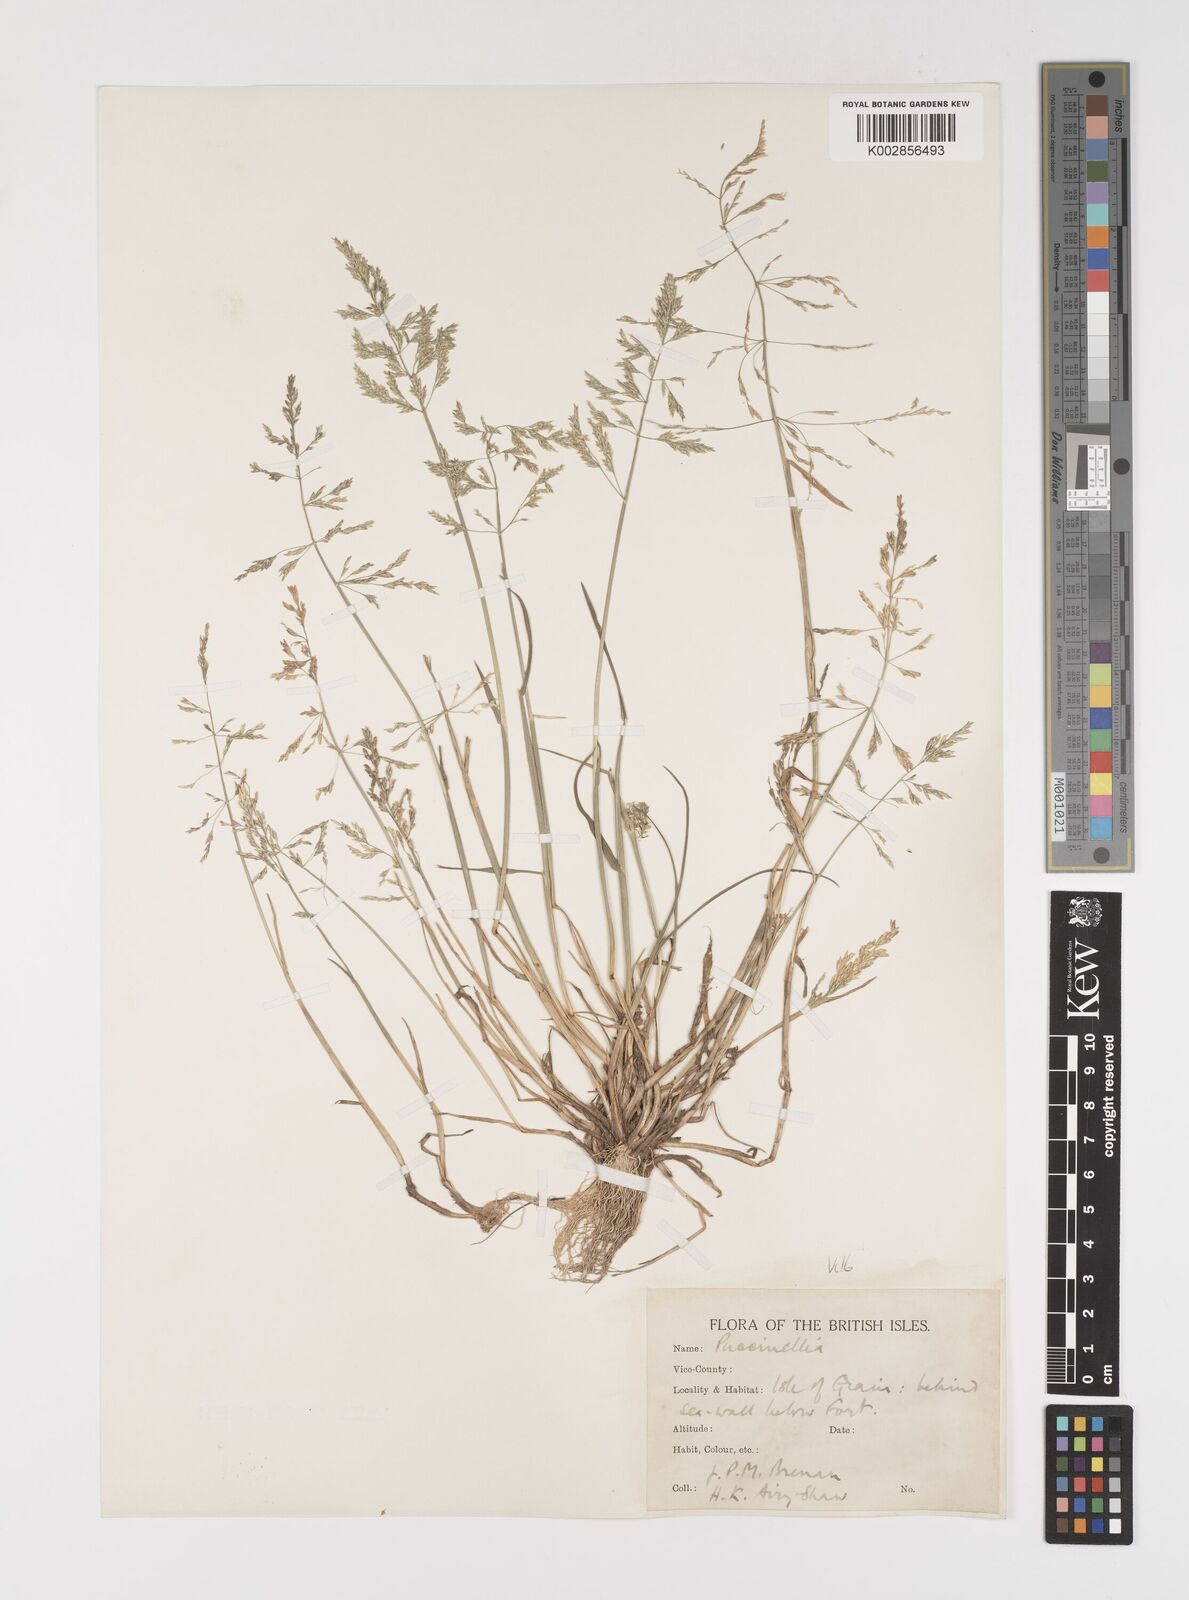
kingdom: Plantae
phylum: Tracheophyta
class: Liliopsida
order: Poales
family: Poaceae
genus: Puccinellia
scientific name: Puccinellia distans
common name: Weeping alkaligrass
